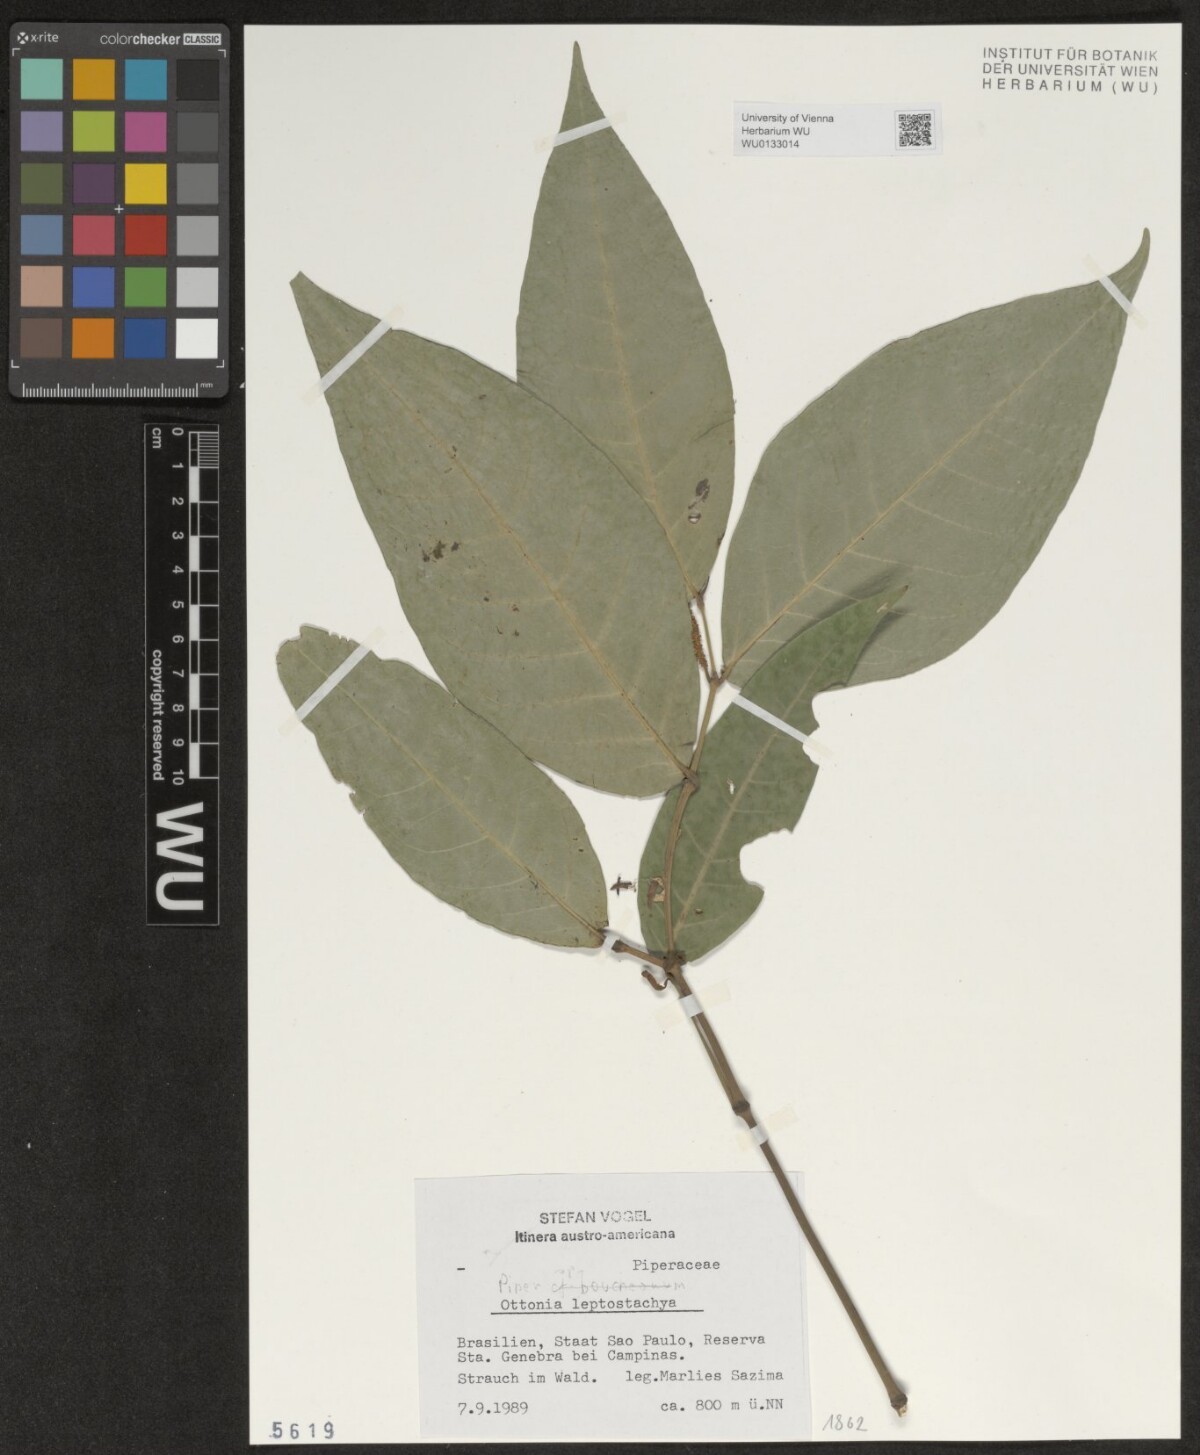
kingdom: Plantae
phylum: Tracheophyta
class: Magnoliopsida
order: Piperales
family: Piperaceae
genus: Piper
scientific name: Piper
